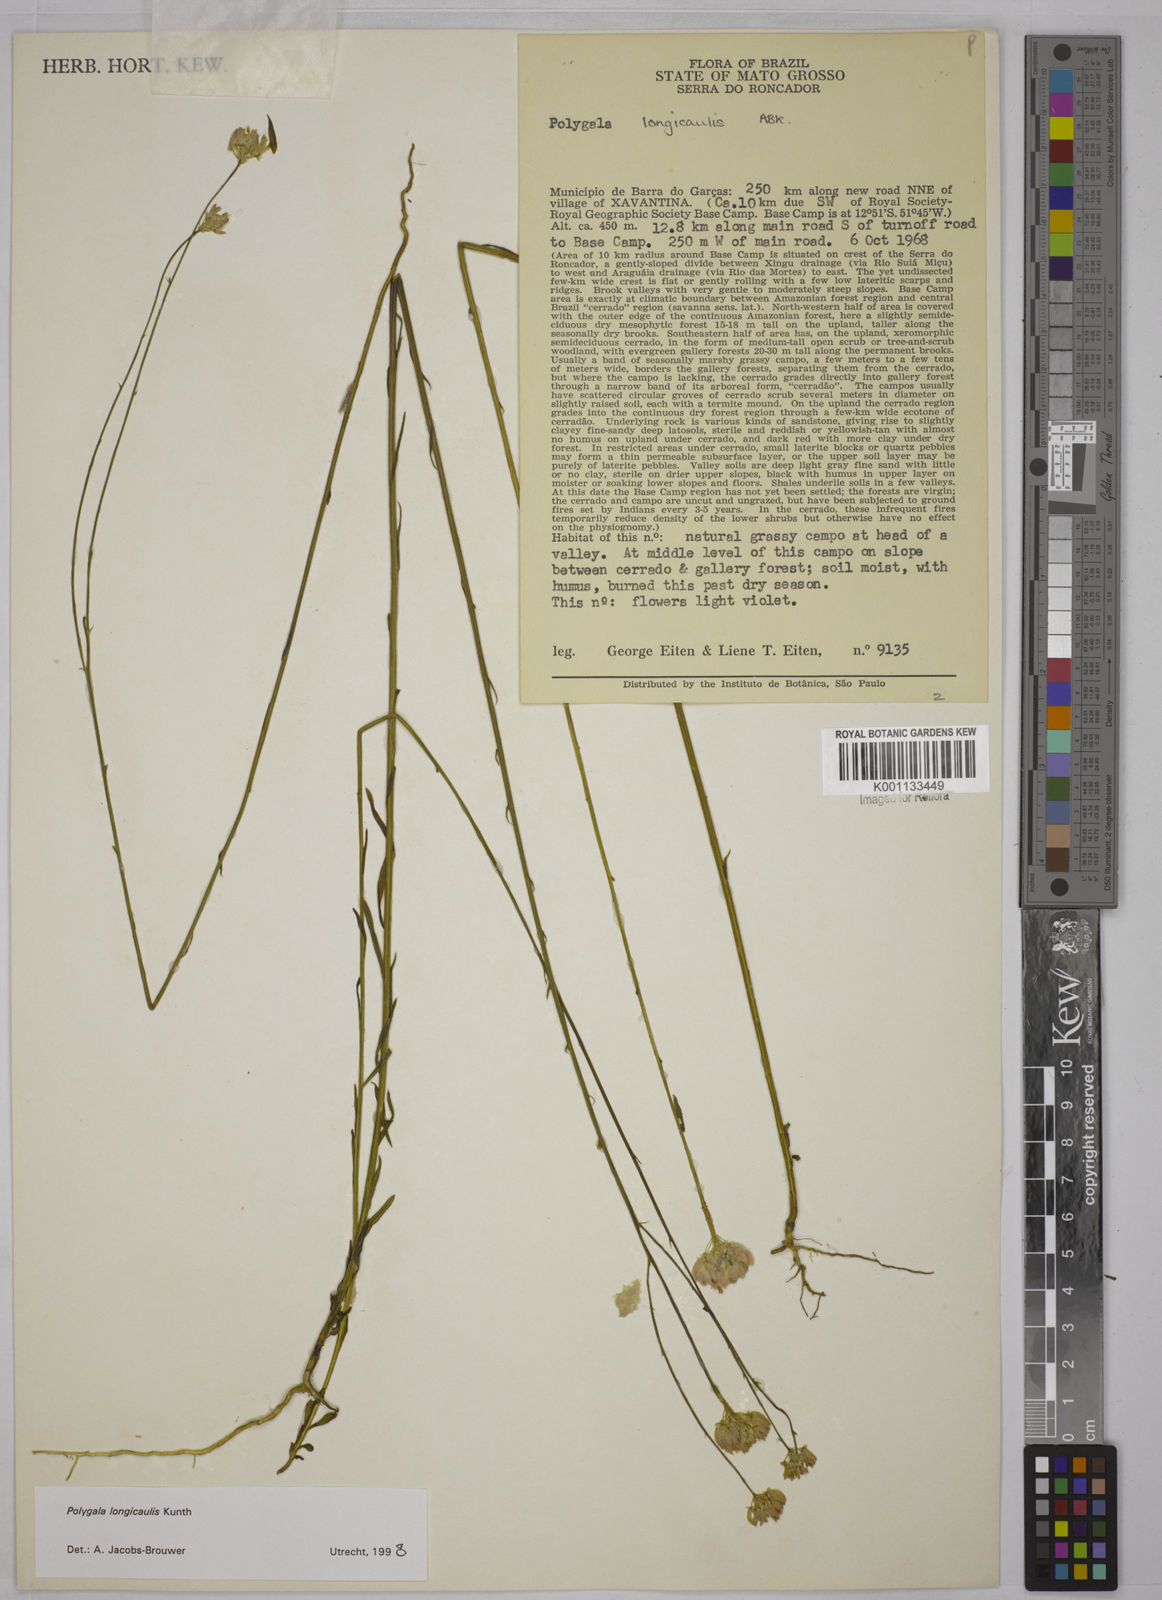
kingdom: Plantae
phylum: Tracheophyta
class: Magnoliopsida
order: Fabales
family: Polygalaceae
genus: Polygala
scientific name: Polygala longicaulis
